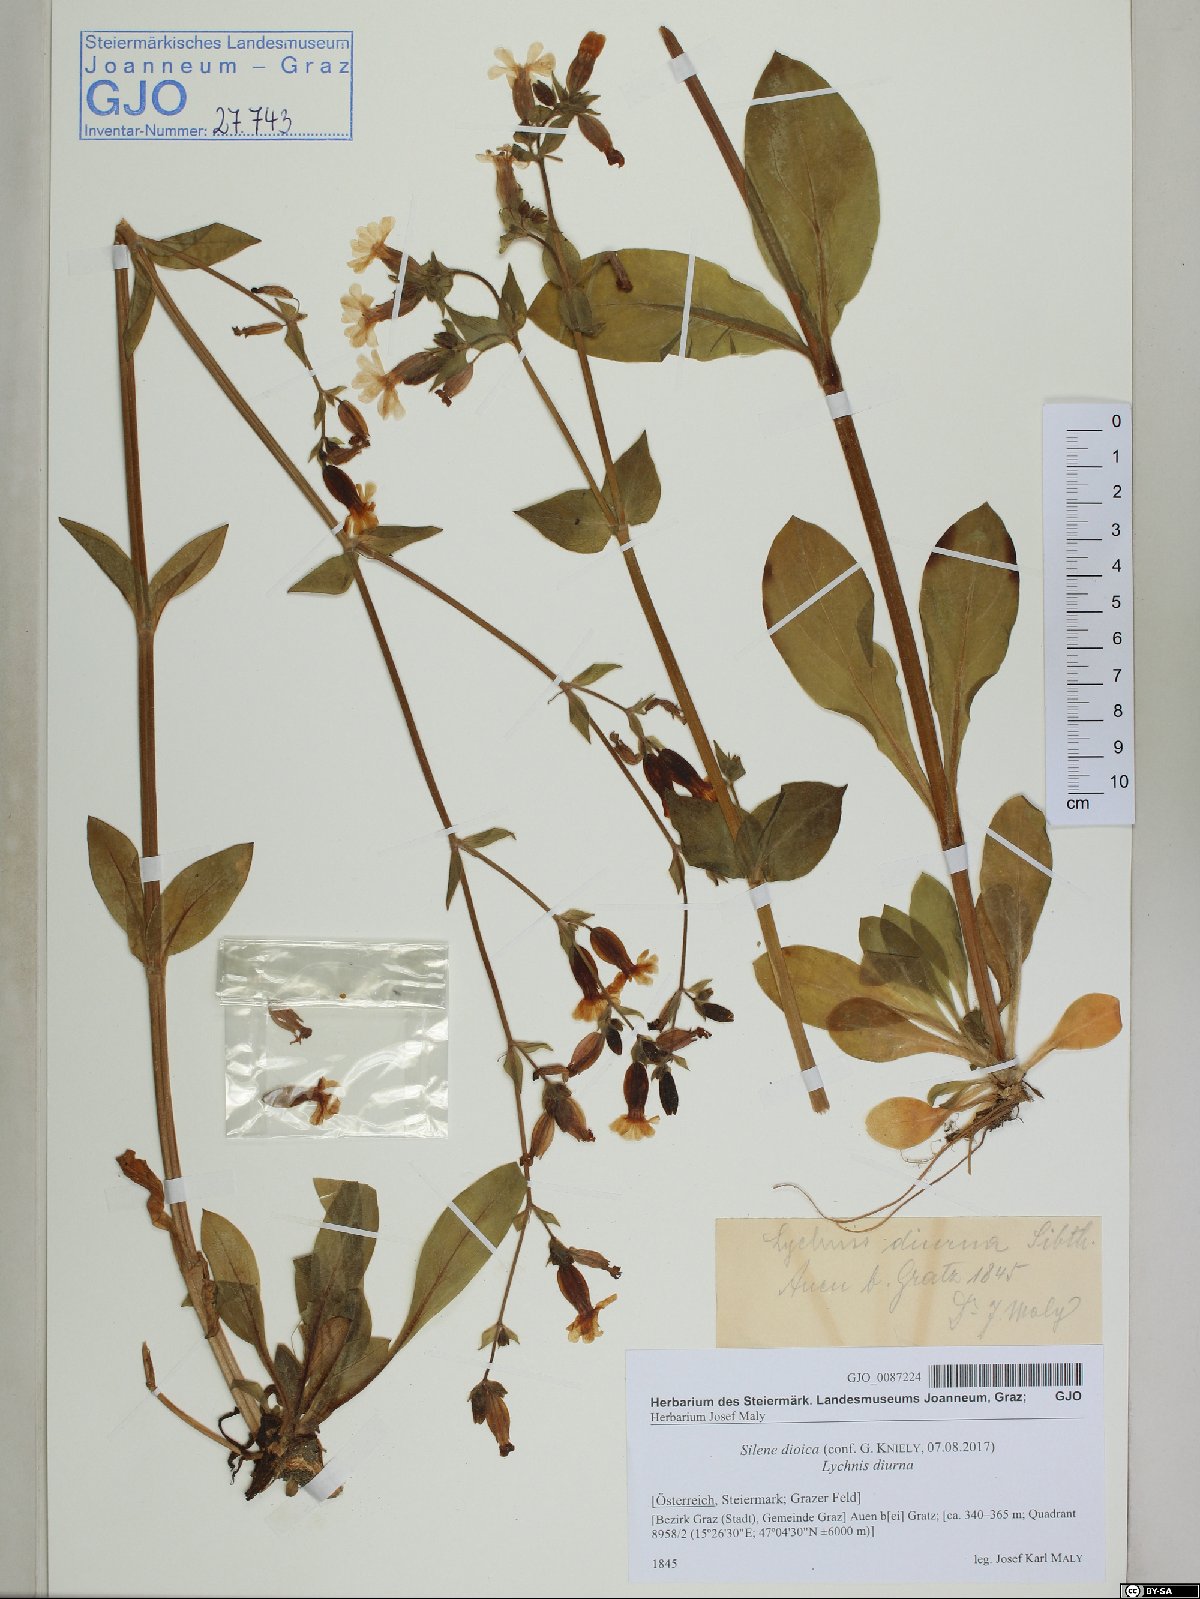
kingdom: Plantae
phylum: Tracheophyta
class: Magnoliopsida
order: Caryophyllales
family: Caryophyllaceae
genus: Silene
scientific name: Silene dioica
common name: Red campion
